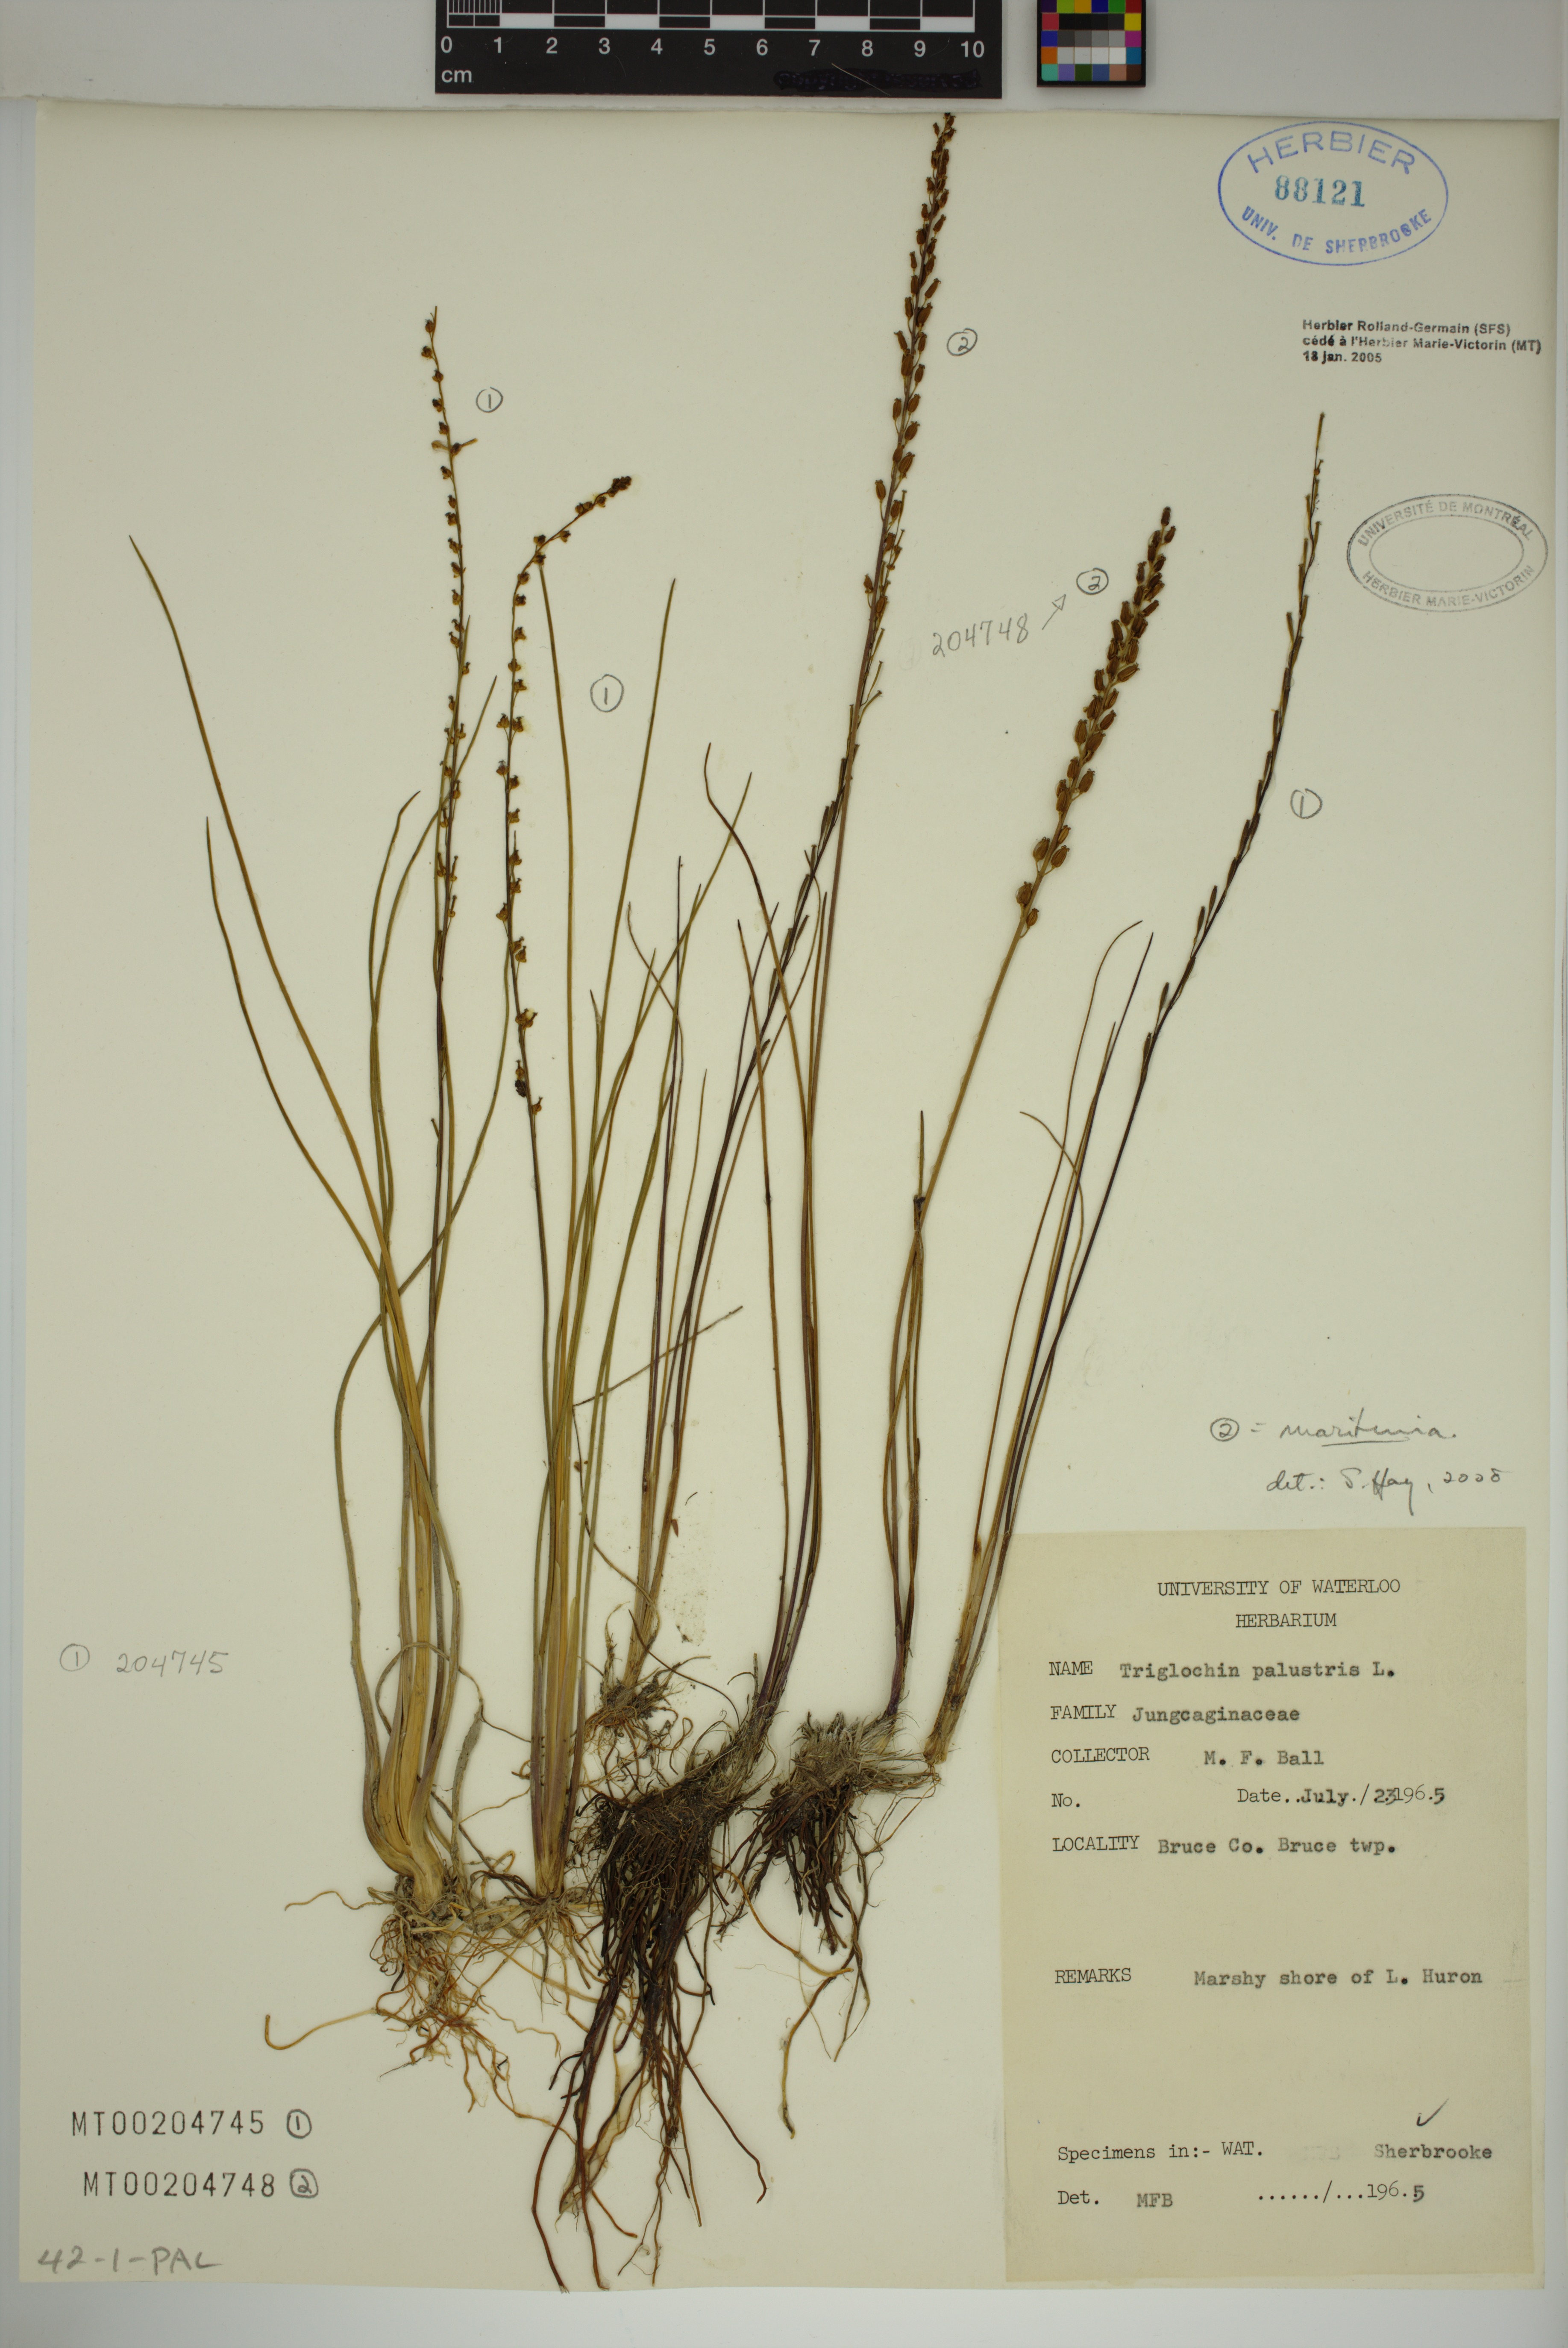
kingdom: Plantae
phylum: Tracheophyta
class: Liliopsida
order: Alismatales
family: Juncaginaceae
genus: Triglochin
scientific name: Triglochin palustris
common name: Marsh arrowgrass
